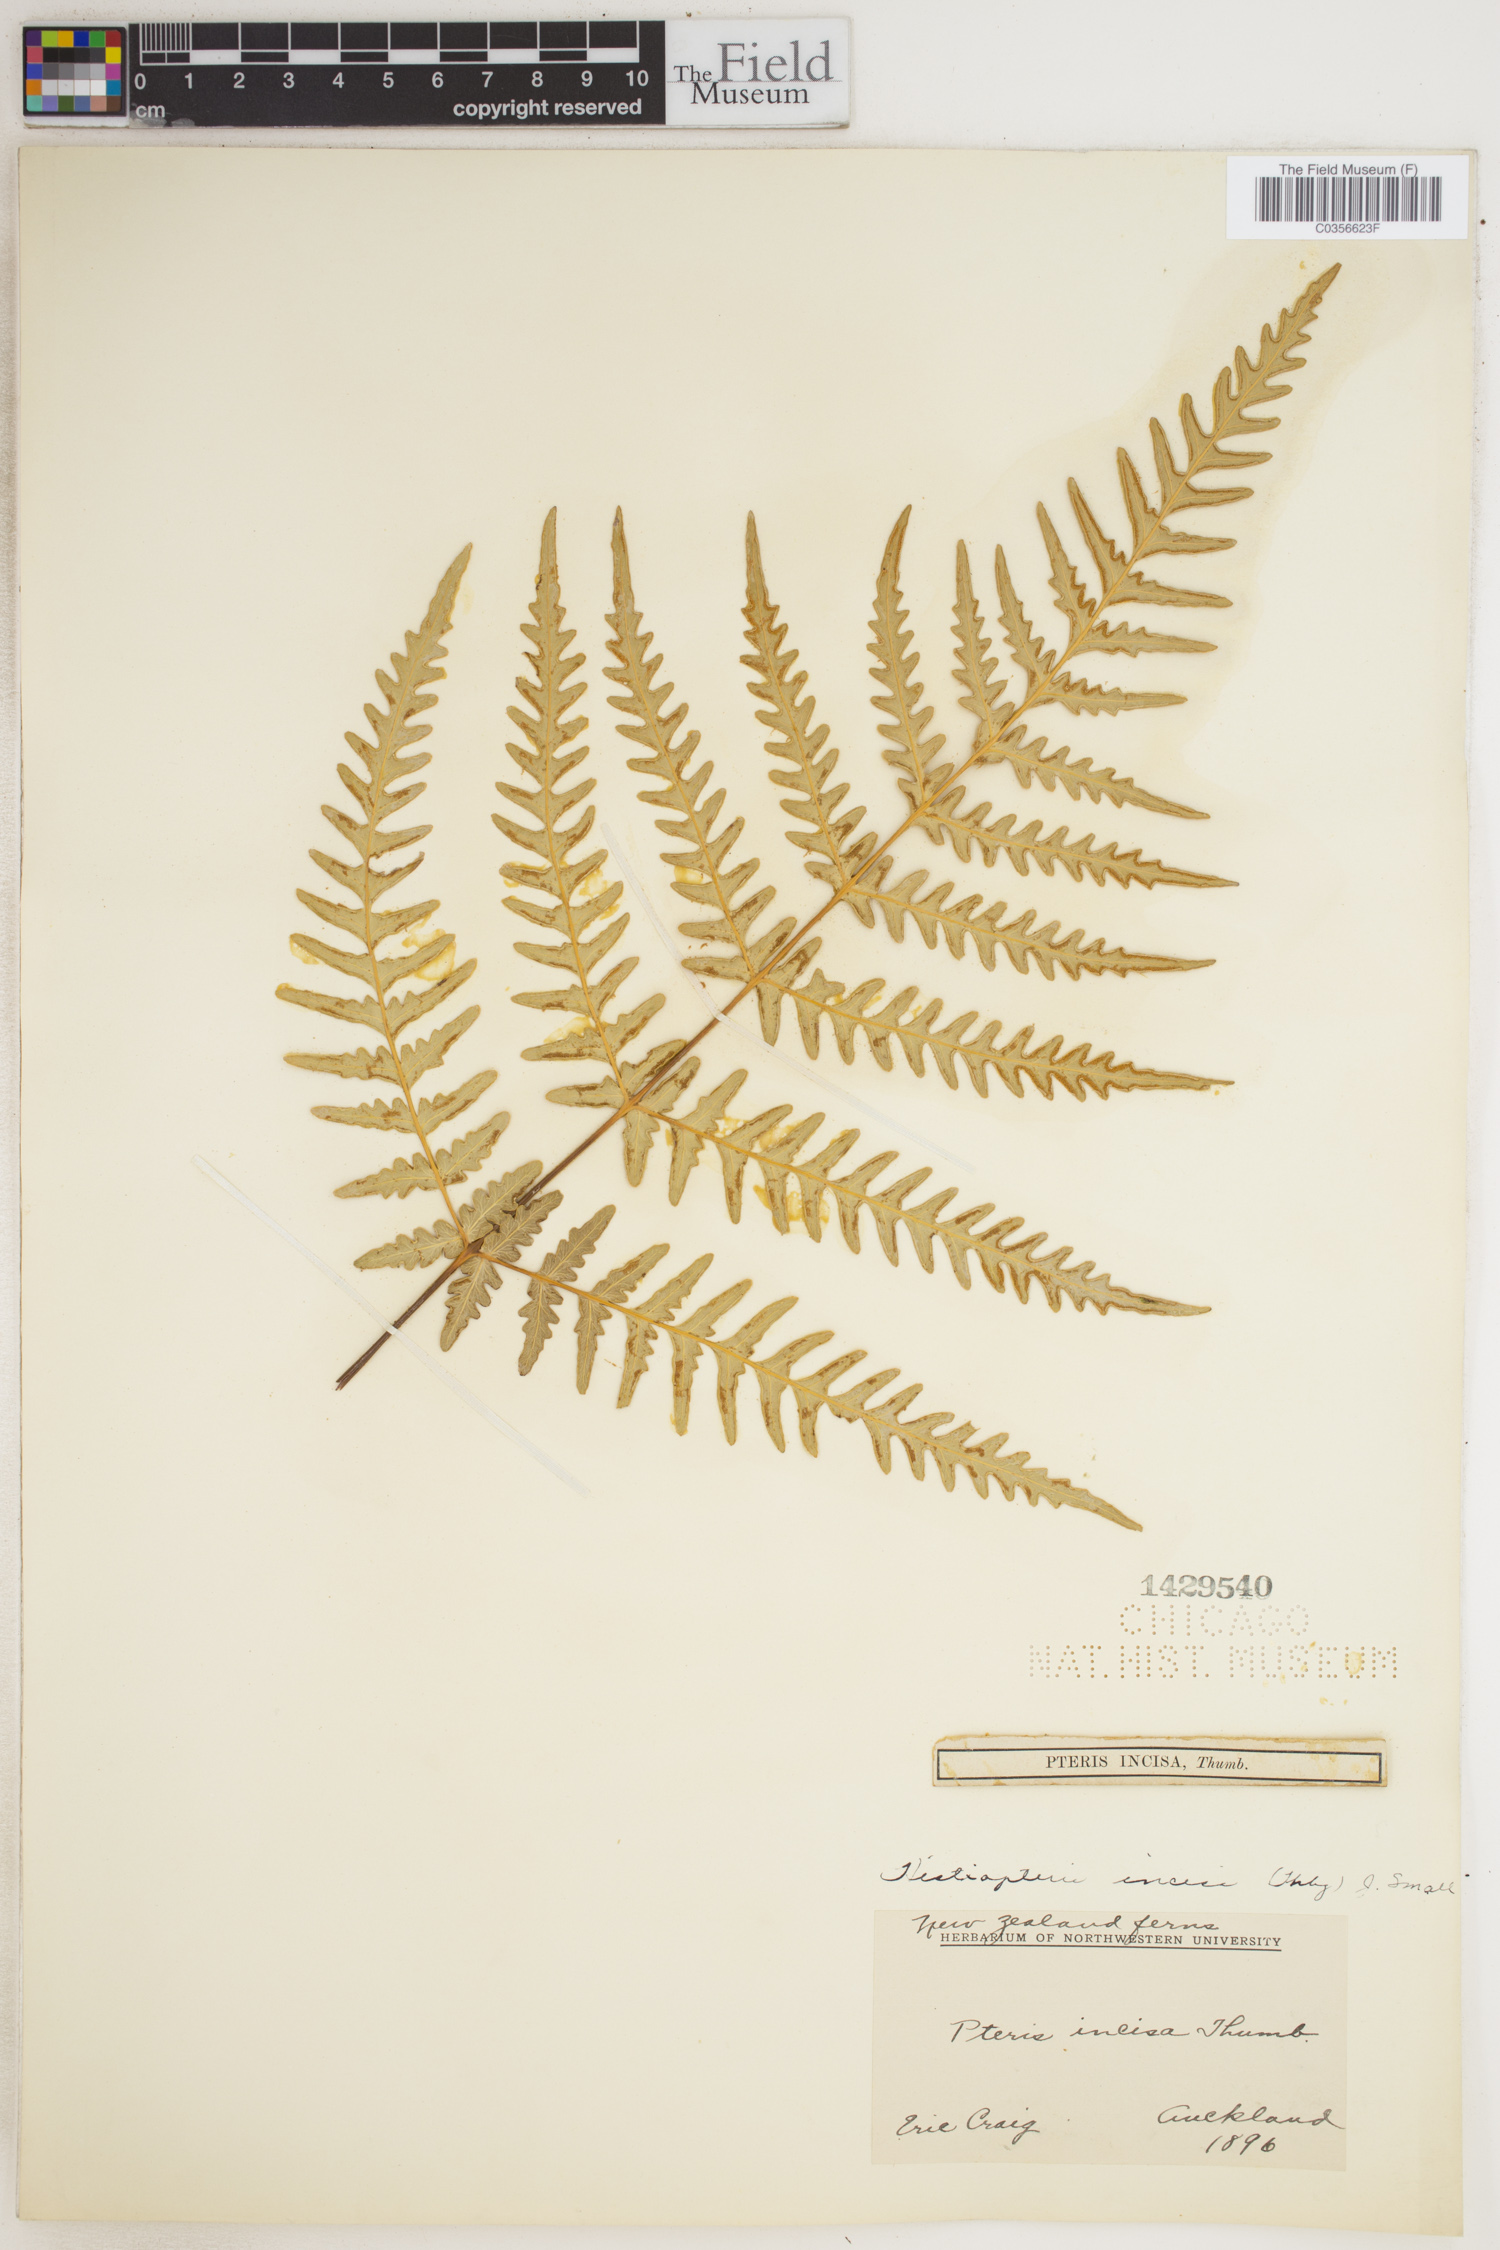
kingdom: Plantae
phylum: Tracheophyta
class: Polypodiopsida
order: Polypodiales
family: Dennstaedtiaceae
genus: Histiopteris
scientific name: Histiopteris incisa
